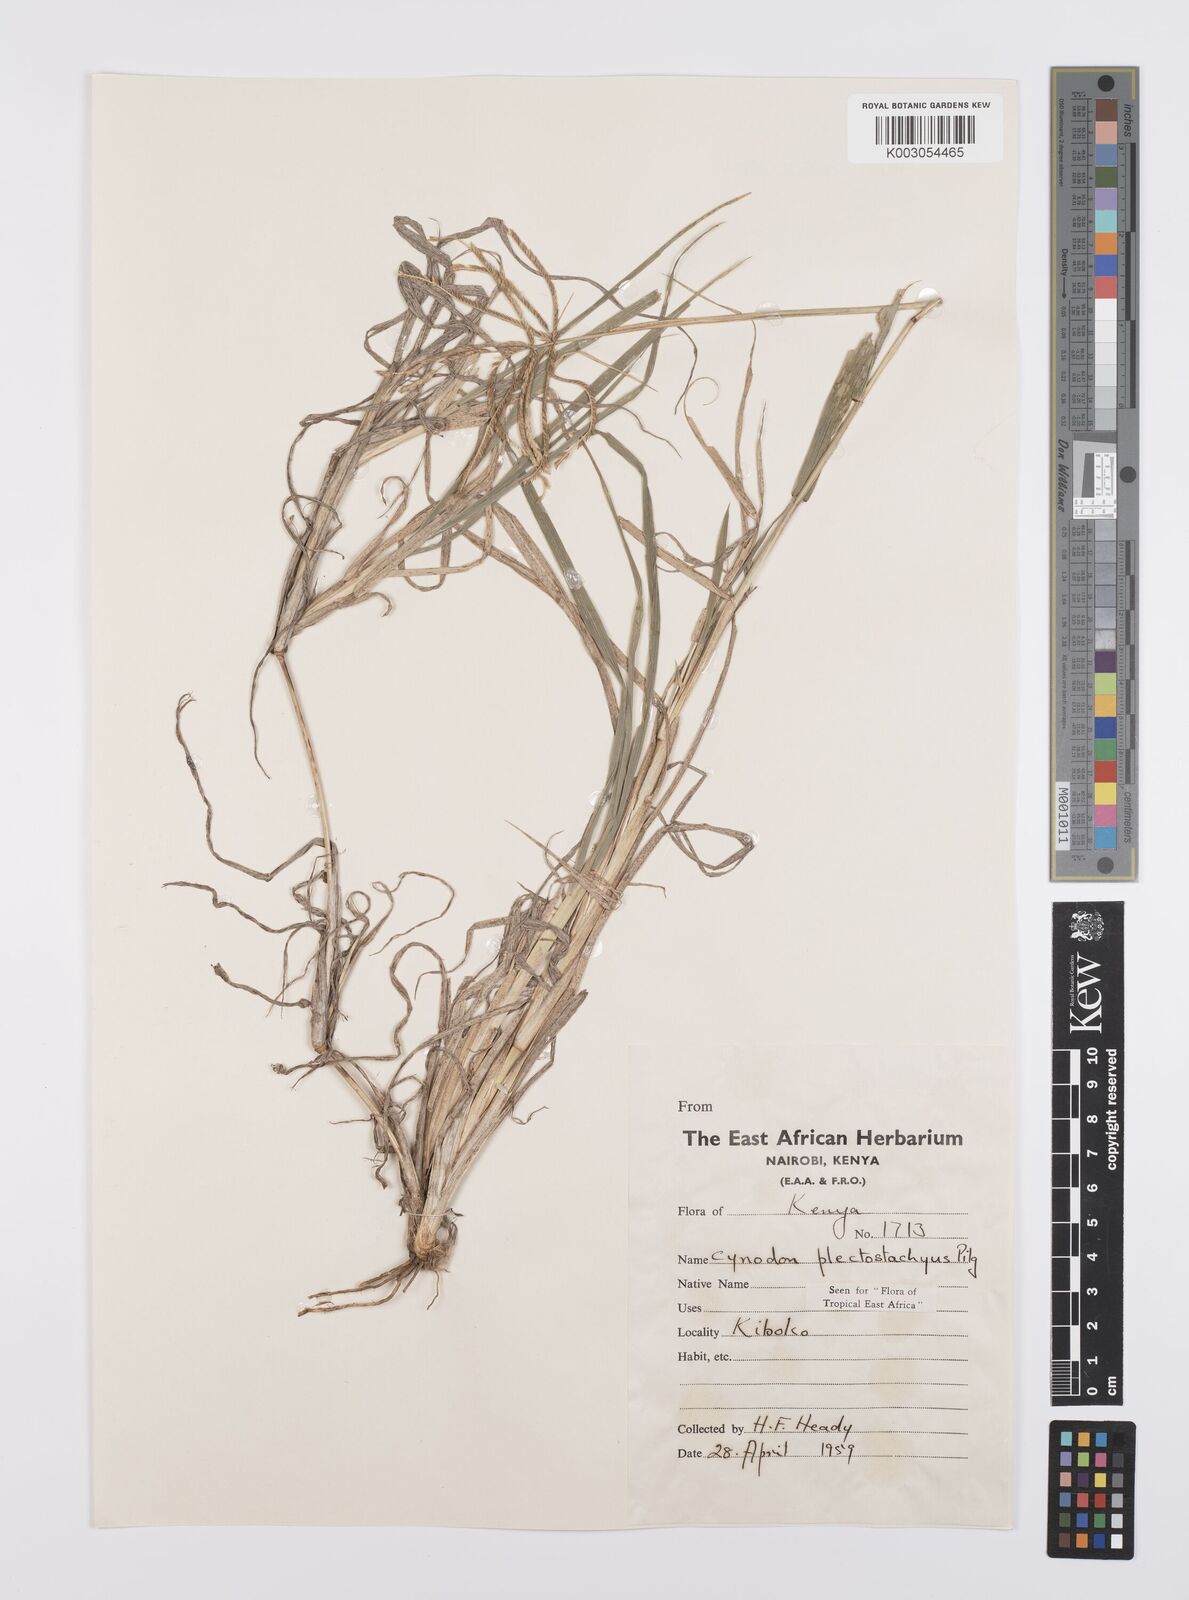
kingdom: Plantae
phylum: Tracheophyta
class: Liliopsida
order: Poales
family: Poaceae
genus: Cynodon
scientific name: Cynodon plectostachyus
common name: Stargrass
